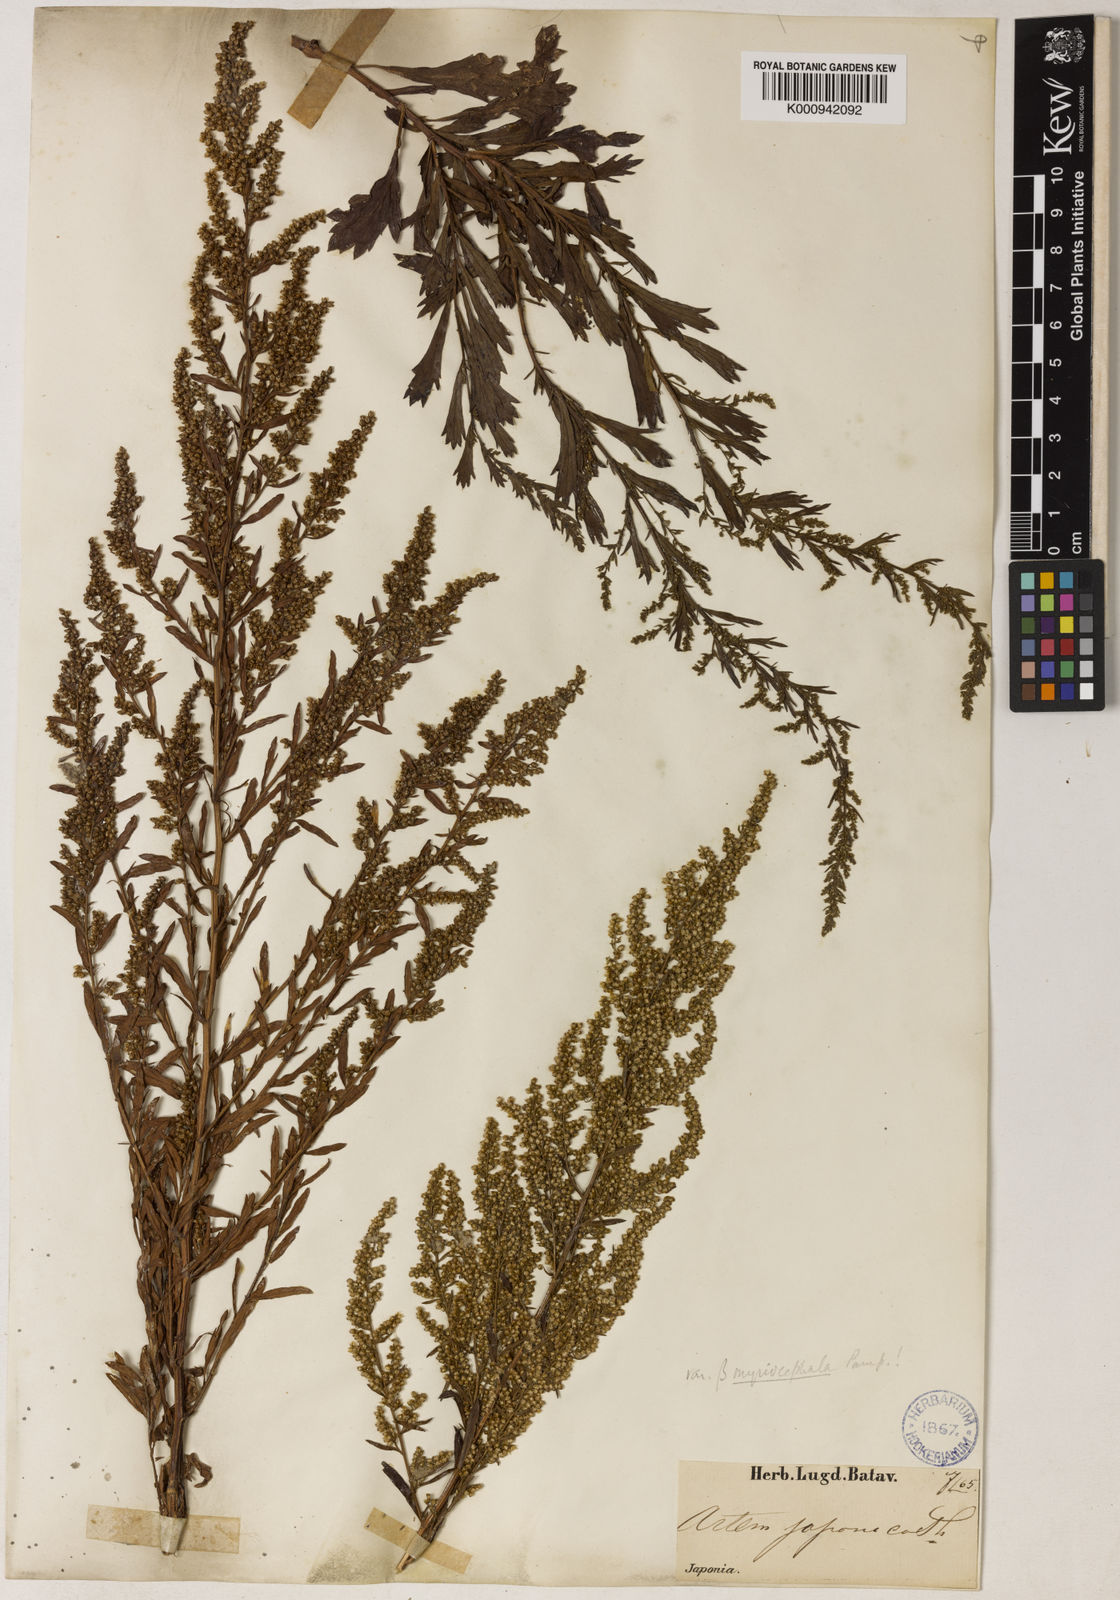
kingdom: Plantae
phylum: Tracheophyta
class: Magnoliopsida
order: Asterales
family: Asteraceae
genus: Artemisia
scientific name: Artemisia japonica
